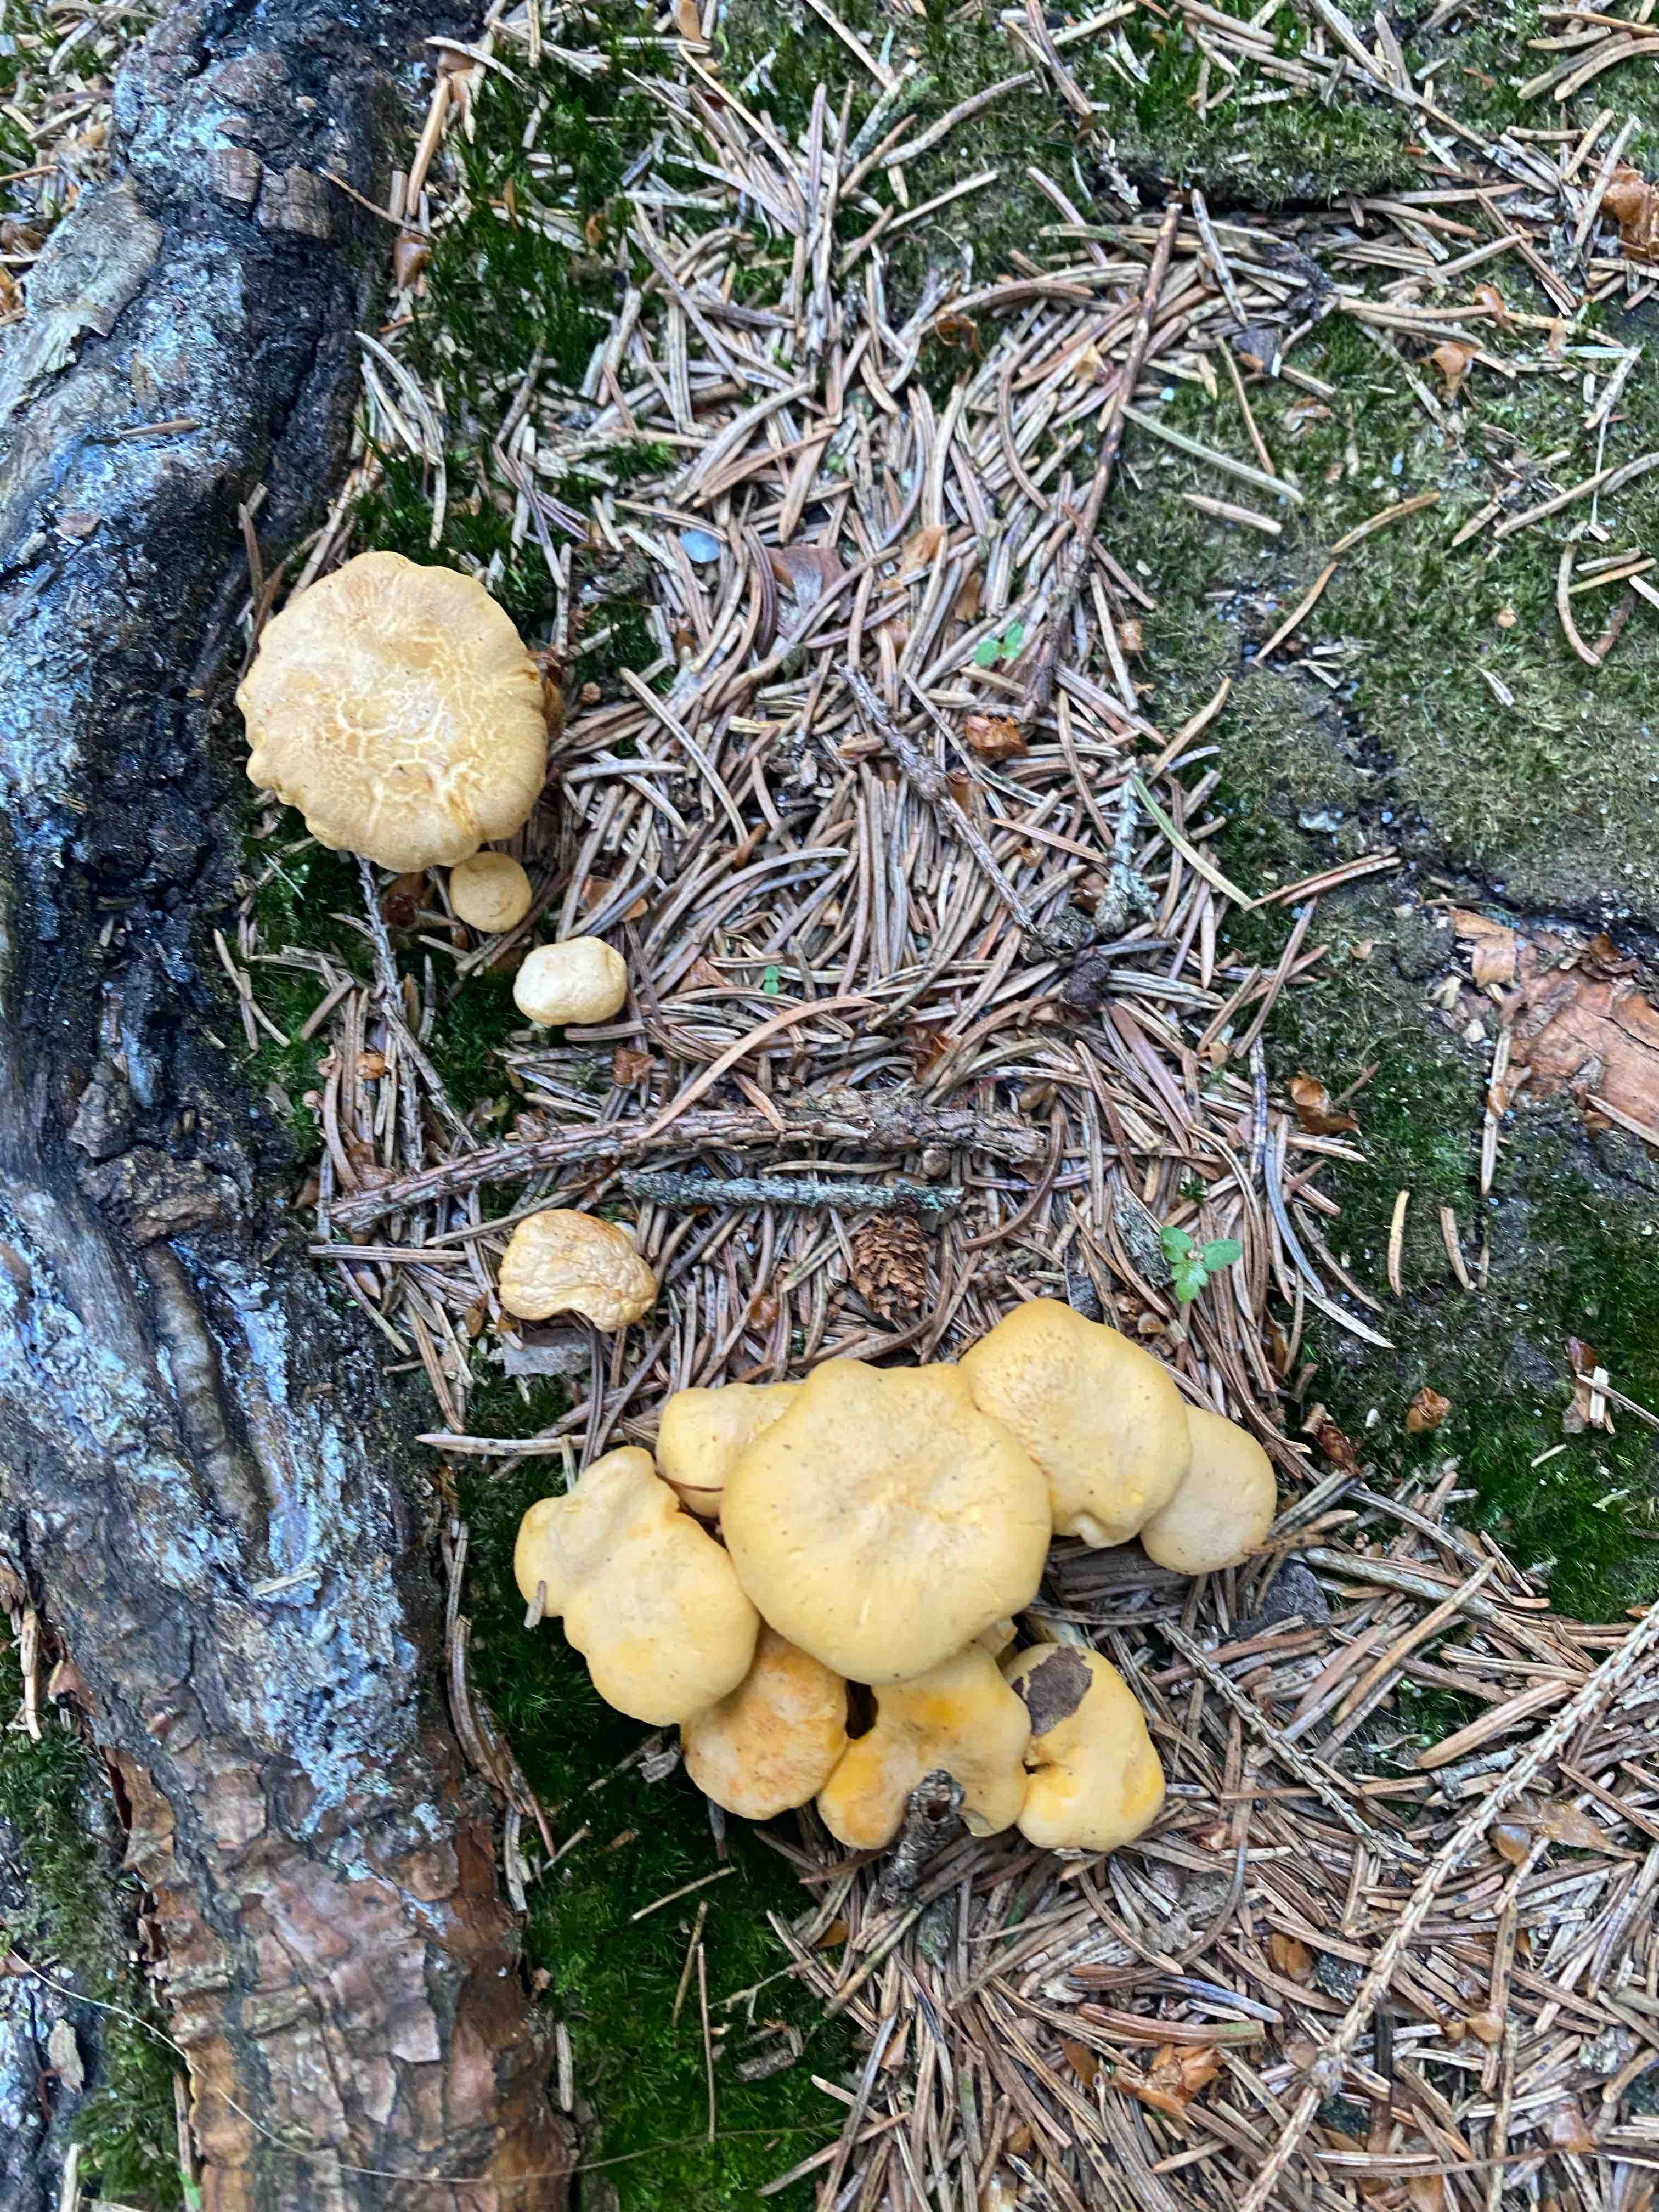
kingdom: Fungi
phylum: Basidiomycota
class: Agaricomycetes
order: Cantharellales
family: Hydnaceae
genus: Cantharellus
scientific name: Cantharellus cibarius
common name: almindelig kantarel
